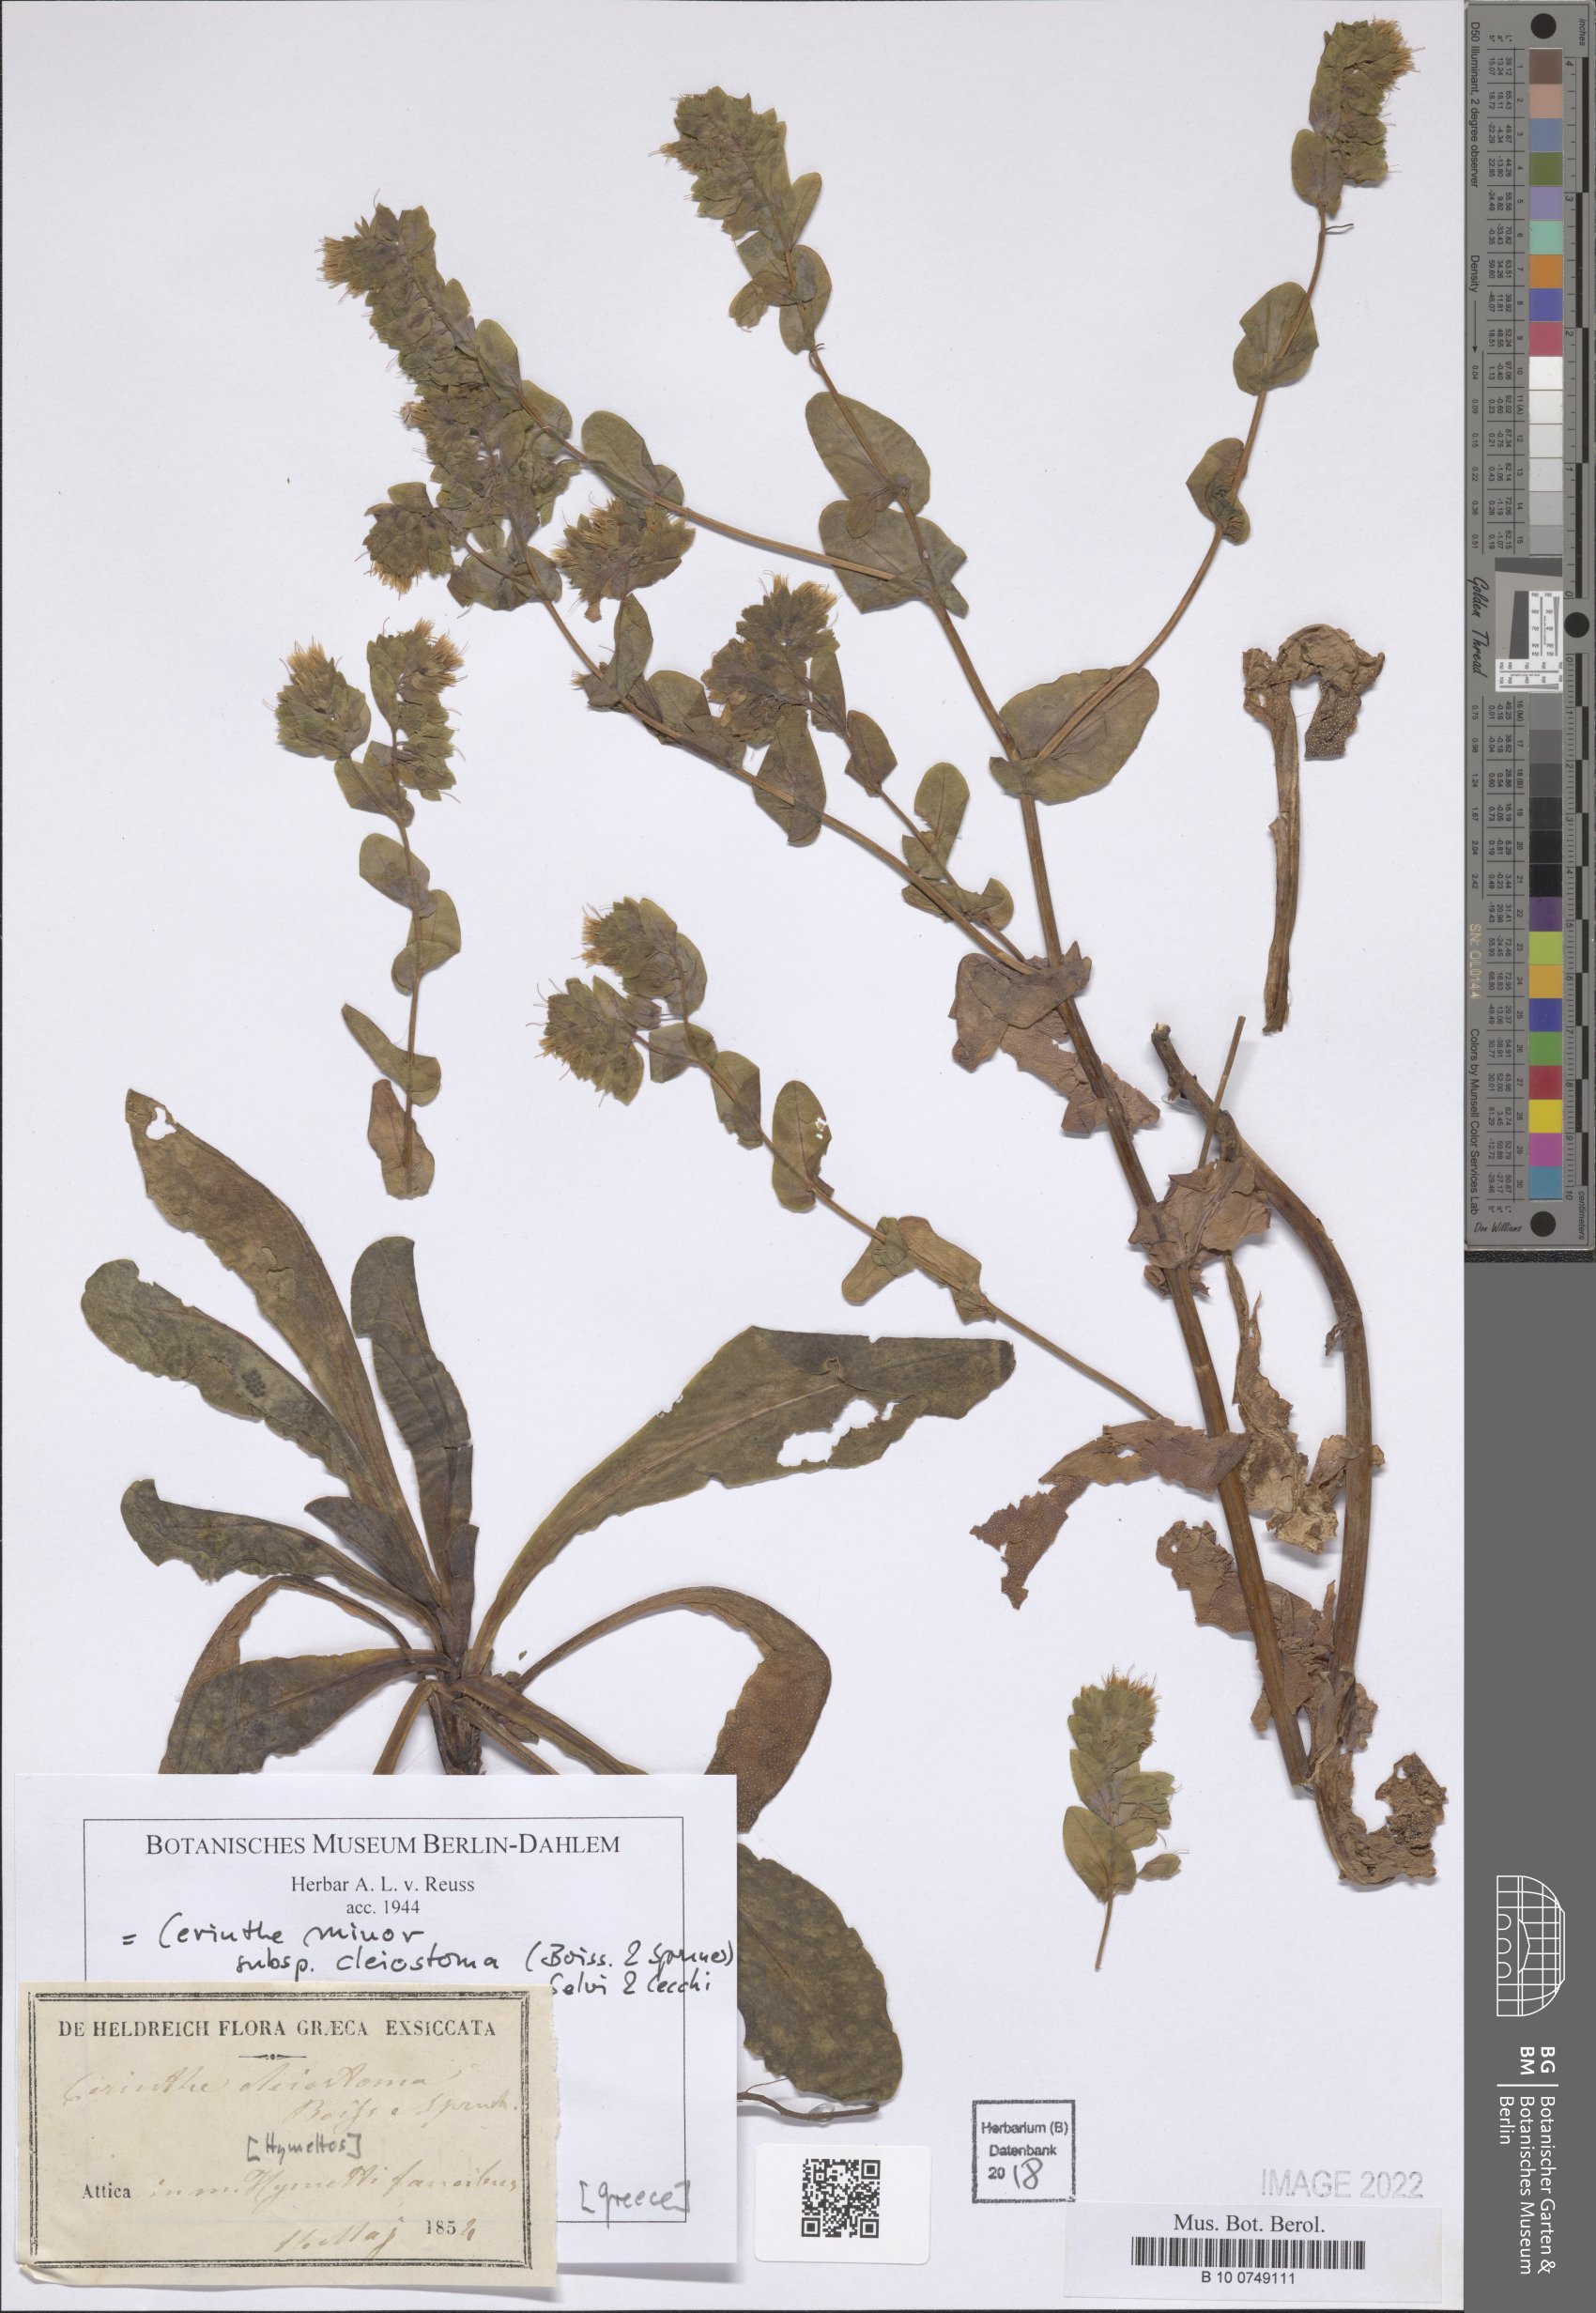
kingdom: Plantae
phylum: Tracheophyta
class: Magnoliopsida
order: Boraginales
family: Boraginaceae
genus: Cerinthe
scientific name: Cerinthe minor
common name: Lesser honeywort
